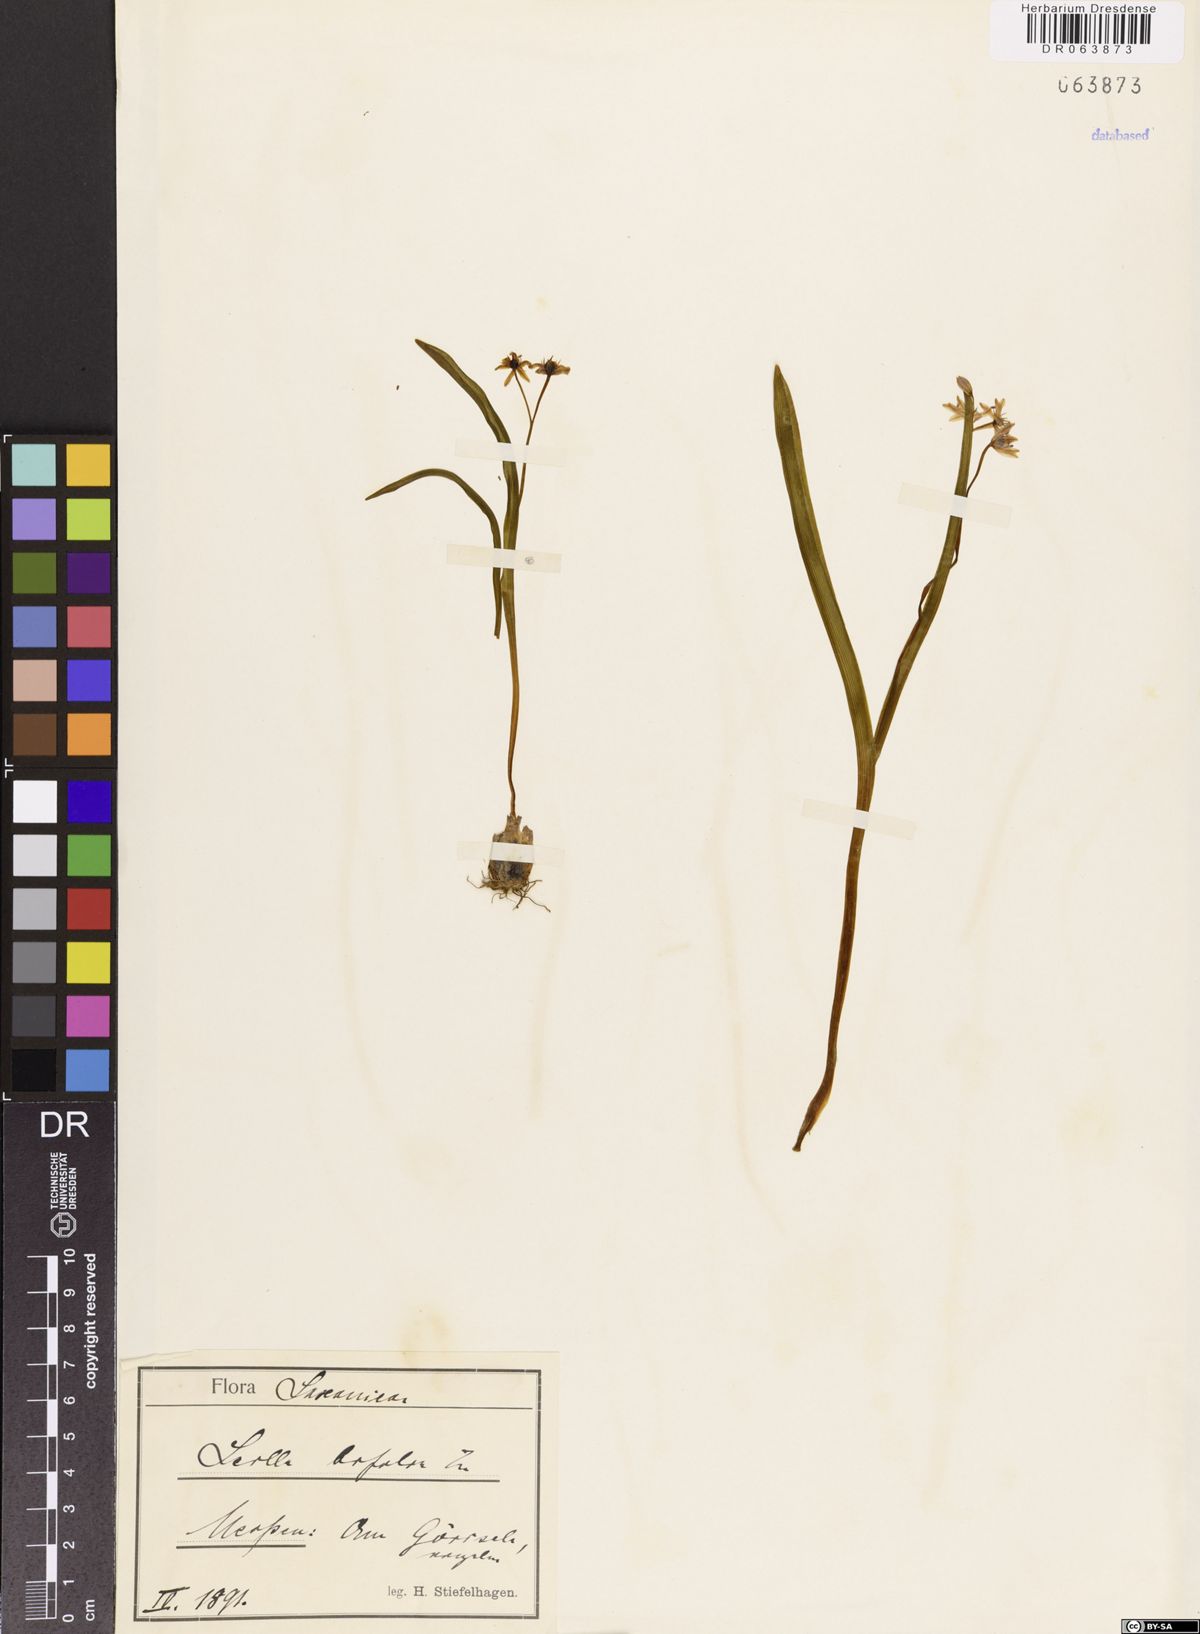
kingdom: Plantae
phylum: Tracheophyta
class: Liliopsida
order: Asparagales
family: Asparagaceae
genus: Scilla
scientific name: Scilla bifolia
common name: Alpine squill
